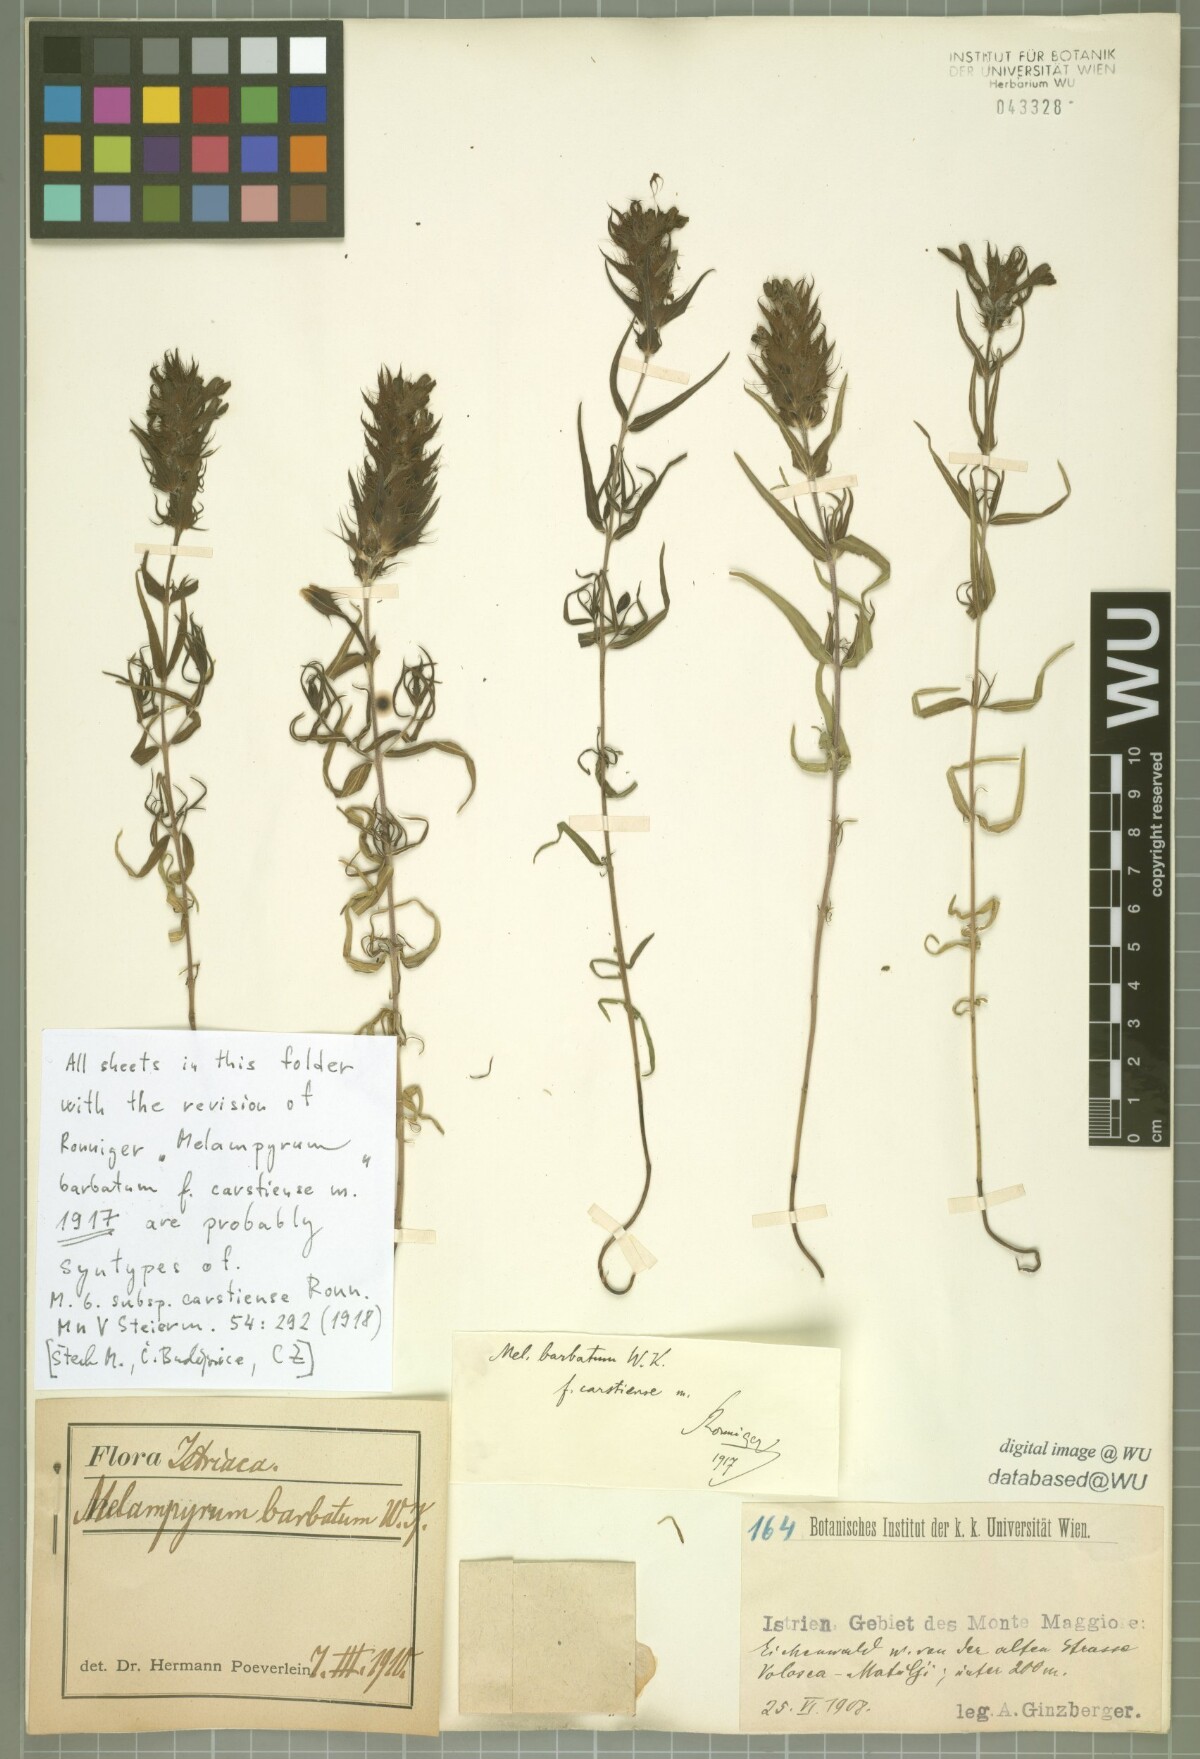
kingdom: Plantae
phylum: Tracheophyta
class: Magnoliopsida
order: Lamiales
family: Orobanchaceae
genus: Melampyrum
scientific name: Melampyrum barbatum
